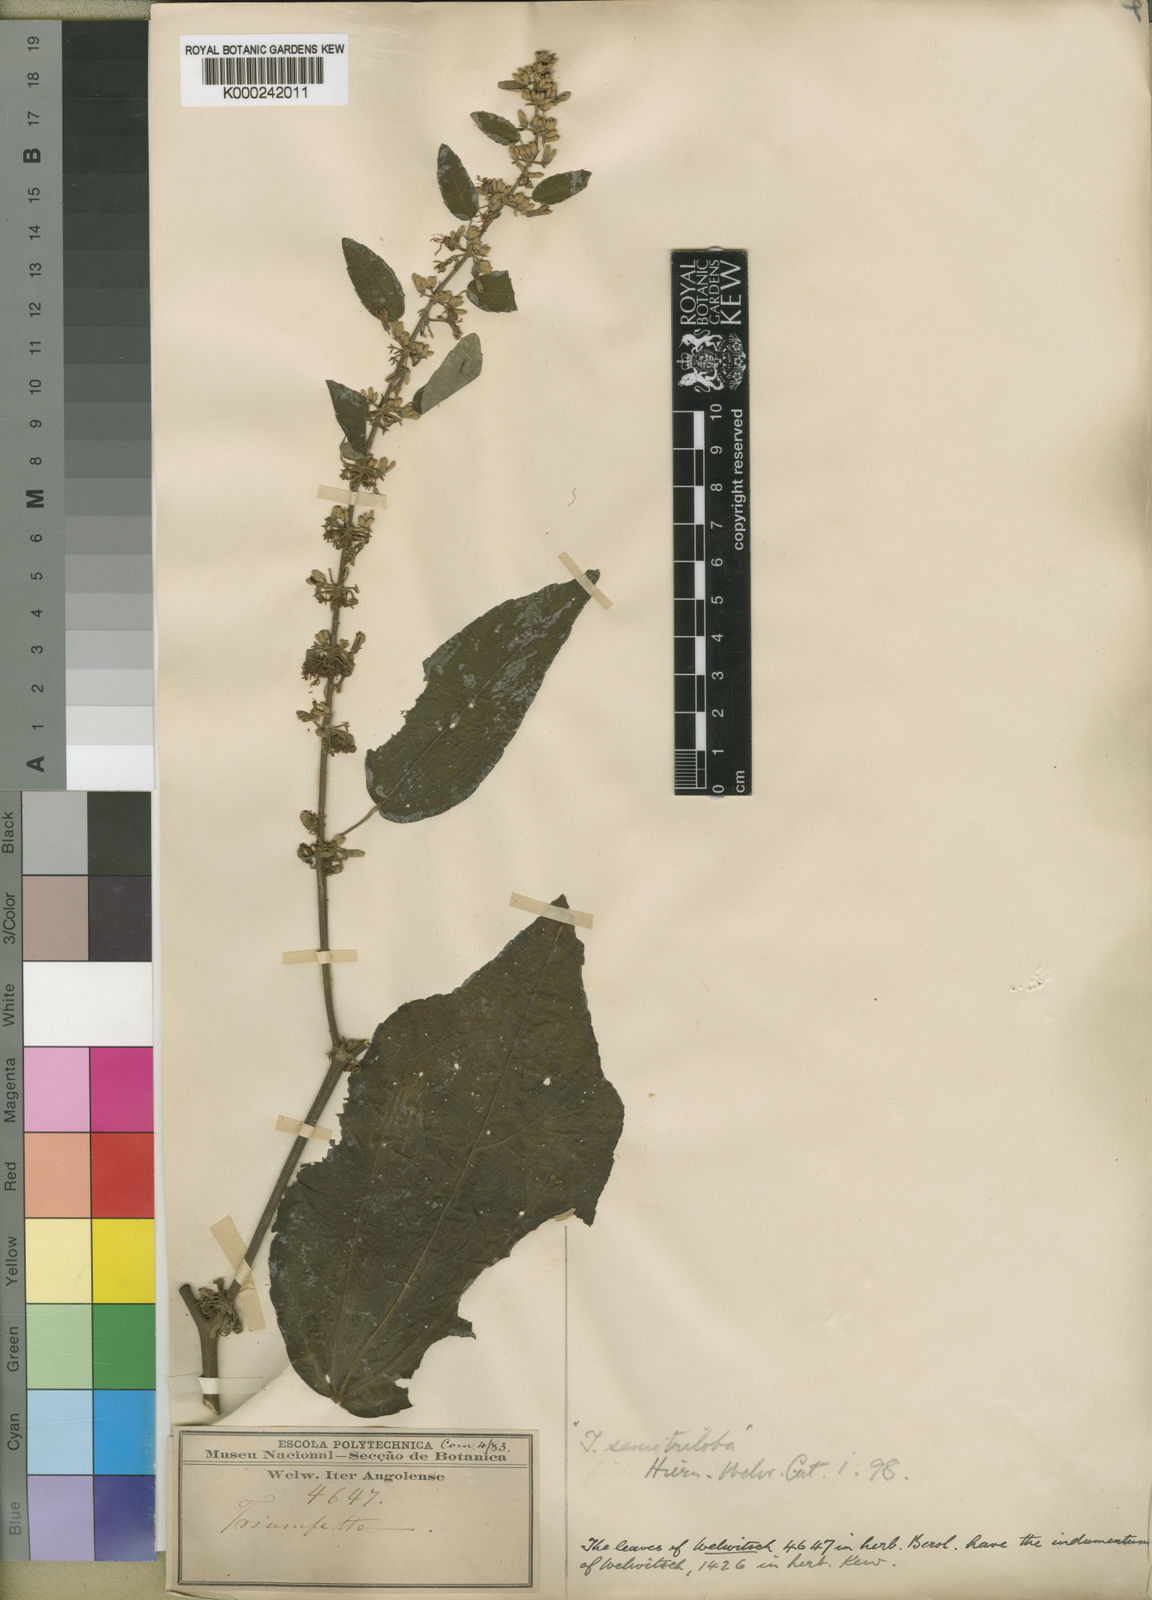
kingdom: Plantae
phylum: Tracheophyta
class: Magnoliopsida
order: Malvales
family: Malvaceae
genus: Triumfetta
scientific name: Triumfetta cordifolia
